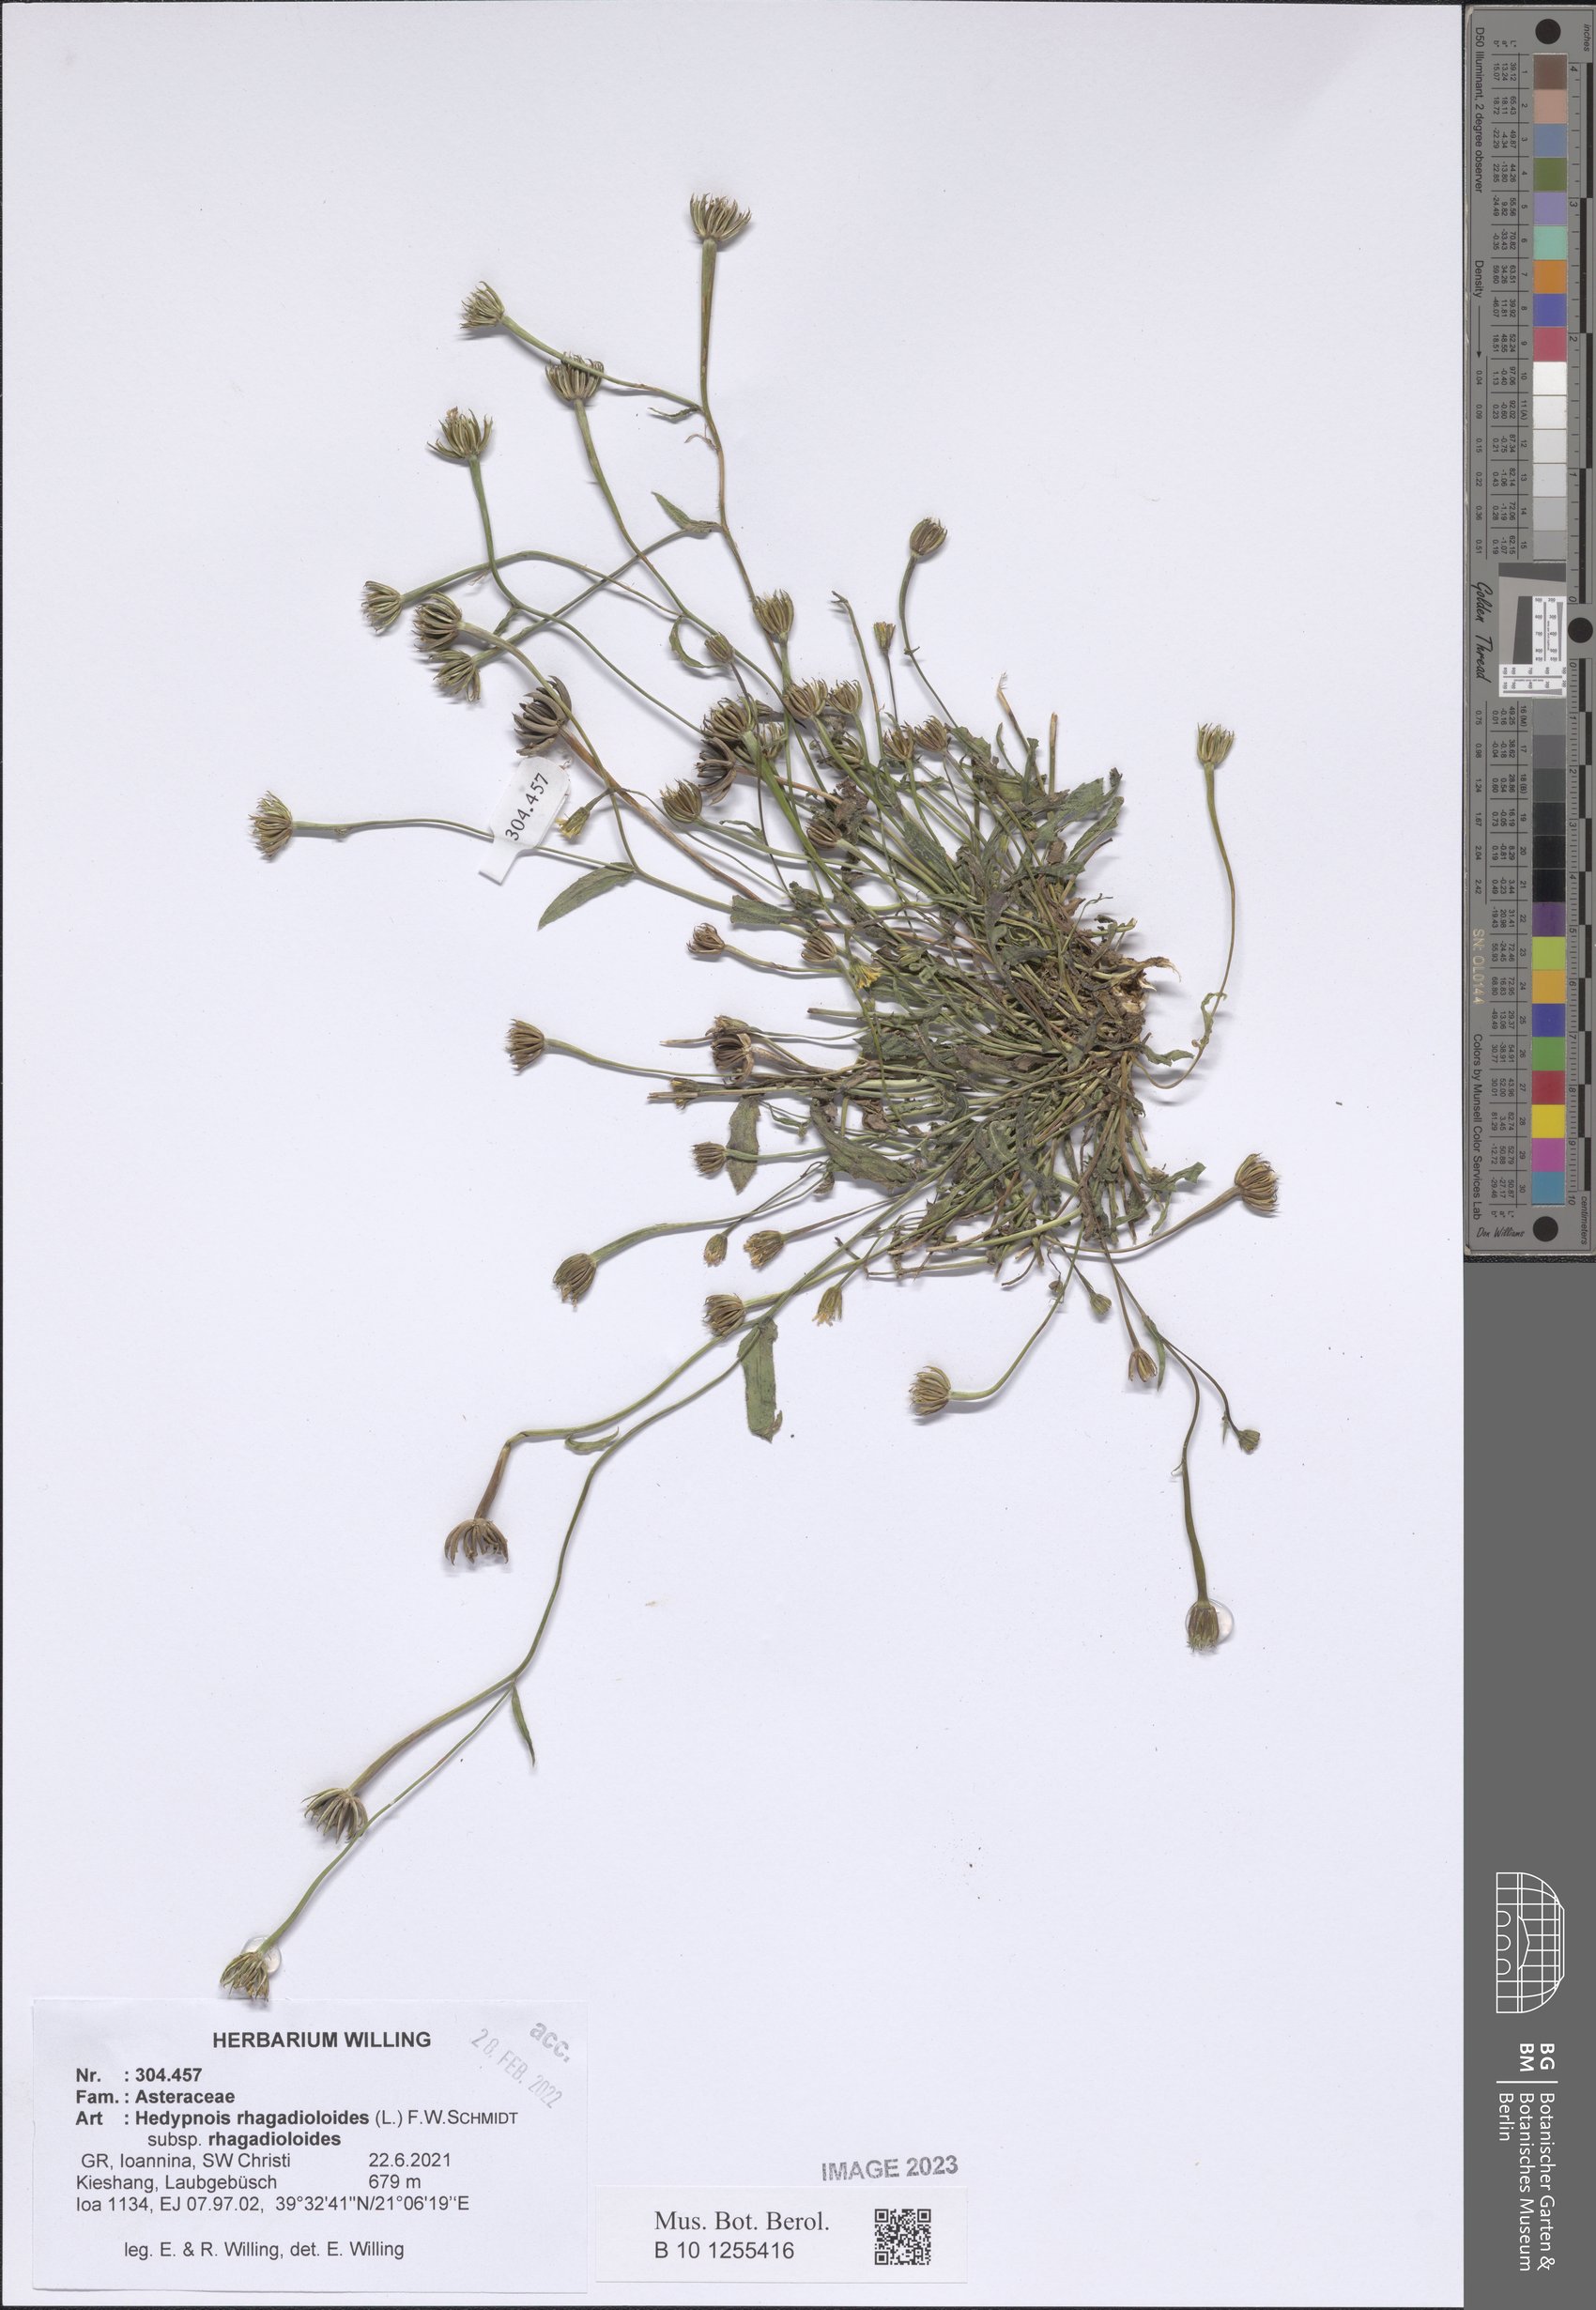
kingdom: Plantae
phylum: Tracheophyta
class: Magnoliopsida
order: Asterales
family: Asteraceae
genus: Hedypnois
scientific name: Hedypnois rhagadioloides
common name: Cretan weed
